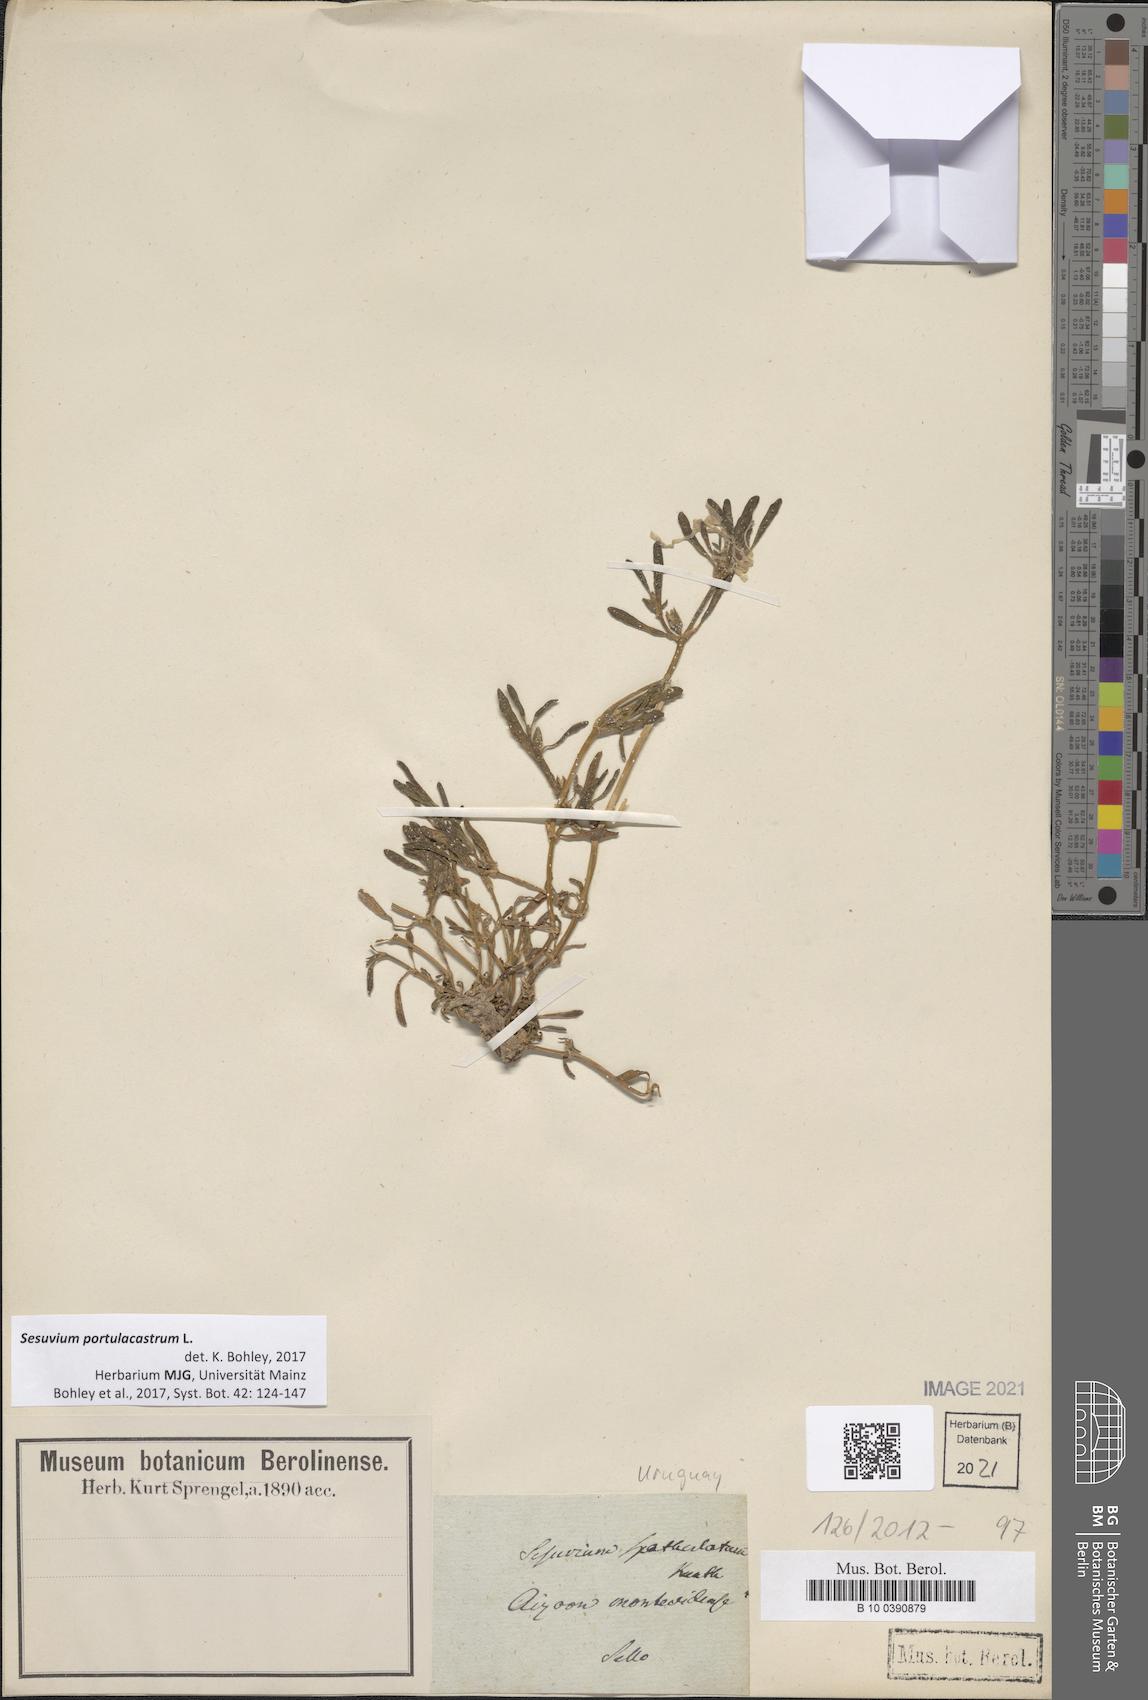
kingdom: Plantae
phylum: Tracheophyta
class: Magnoliopsida
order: Caryophyllales
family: Aizoaceae
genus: Sesuvium
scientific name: Sesuvium portulacastrum
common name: Sea-purslane
